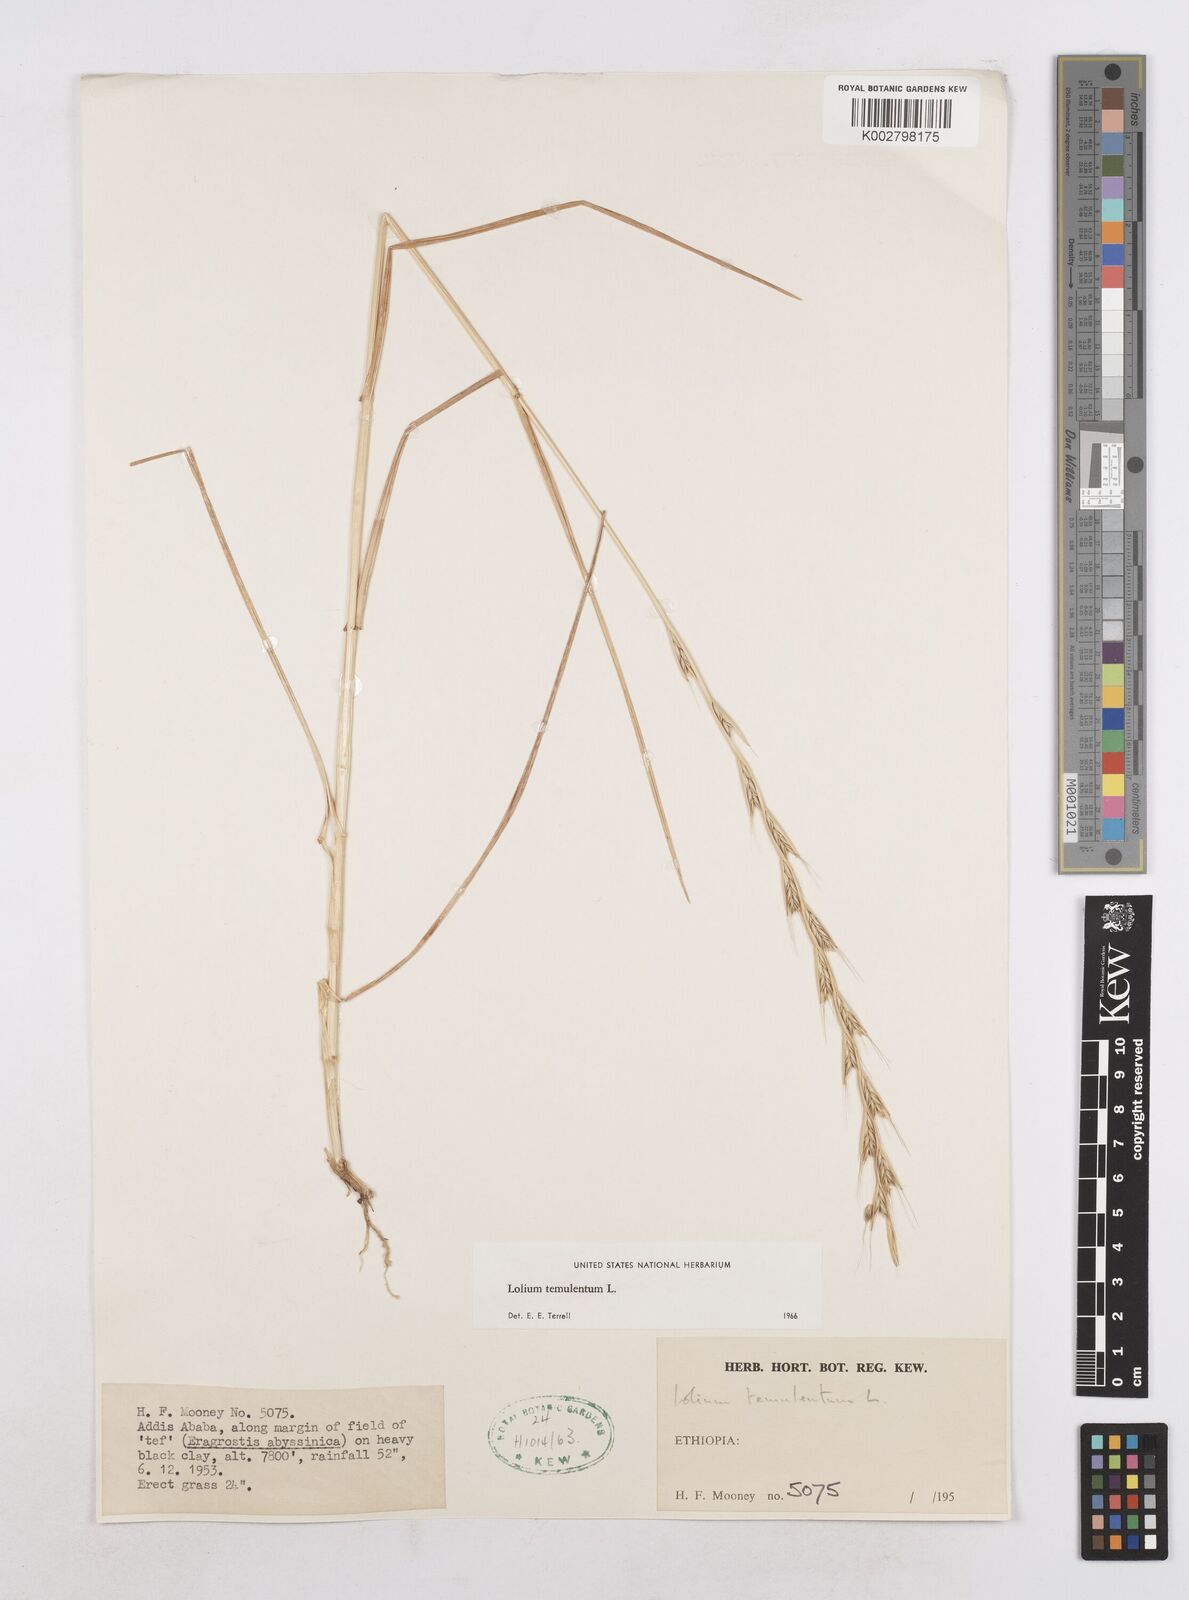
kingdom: Plantae
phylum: Tracheophyta
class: Liliopsida
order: Poales
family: Poaceae
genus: Lolium
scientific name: Lolium temulentum
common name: Darnel
